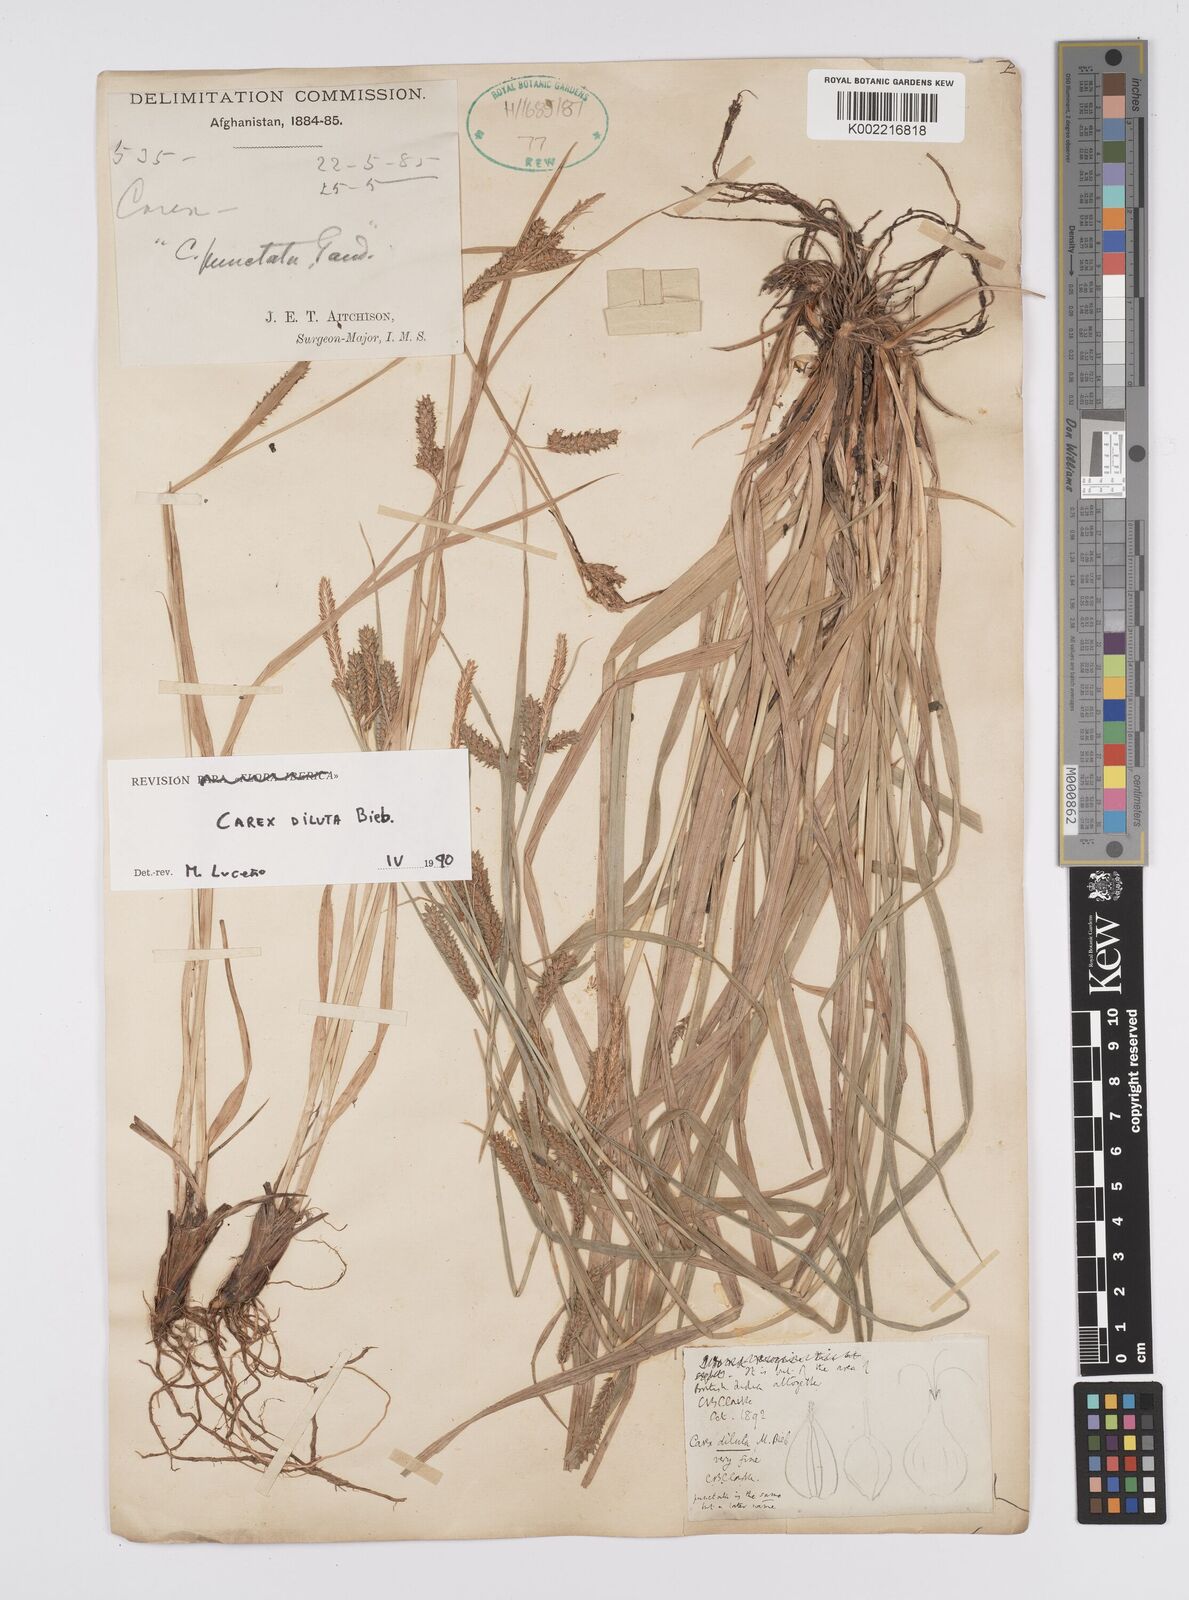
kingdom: Plantae
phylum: Tracheophyta
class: Liliopsida
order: Poales
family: Cyperaceae
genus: Carex
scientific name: Carex diluta
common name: Sedge
